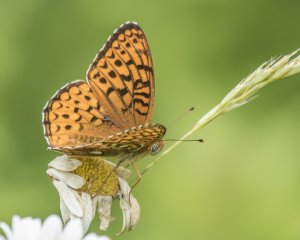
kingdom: Animalia
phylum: Arthropoda
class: Insecta
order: Lepidoptera
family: Nymphalidae
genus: Speyeria
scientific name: Speyeria atlantis
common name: Atlantis Fritillary
